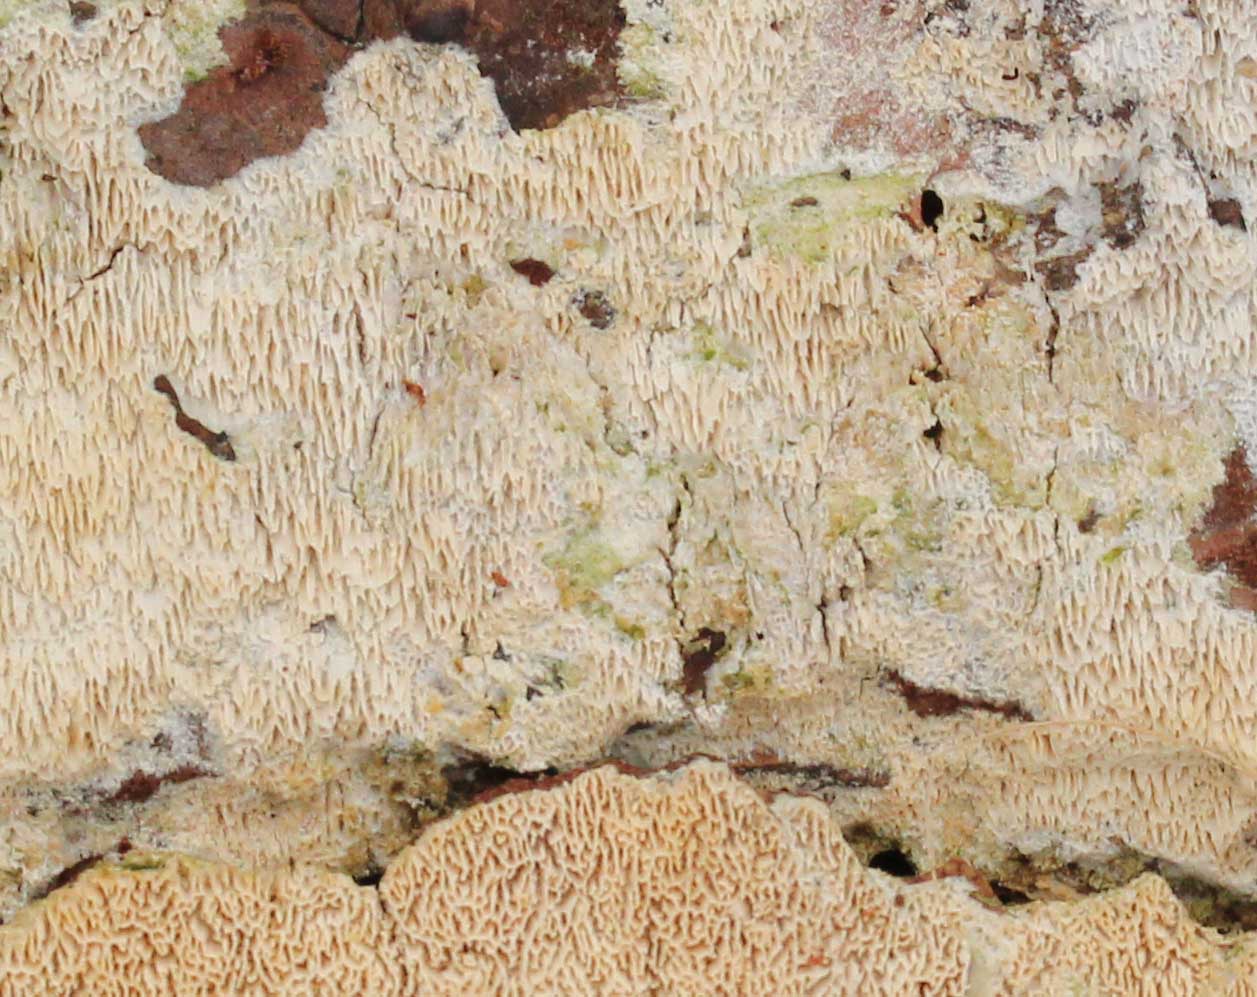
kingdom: Fungi
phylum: Basidiomycota
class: Agaricomycetes
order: Hymenochaetales
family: Schizoporaceae
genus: Xylodon
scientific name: Xylodon subtropicus
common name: labyrint-tandsvamp
